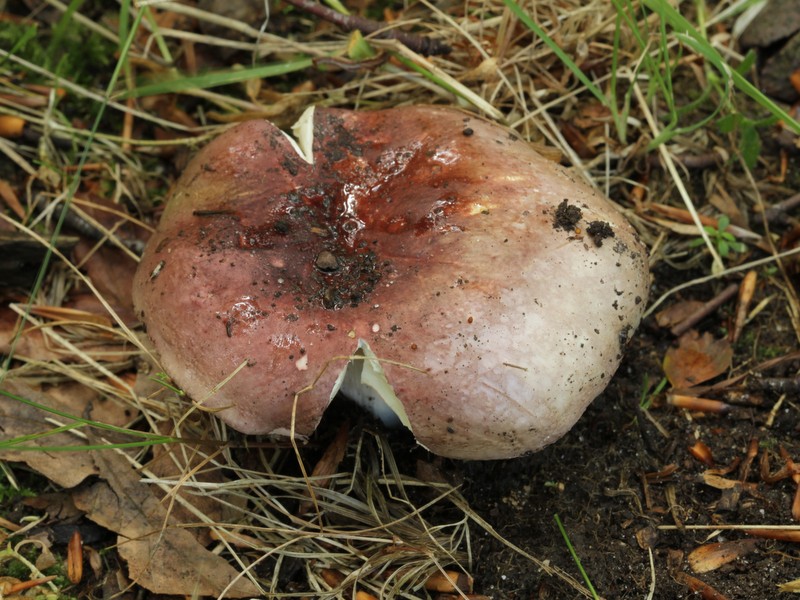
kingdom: Fungi
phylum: Basidiomycota
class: Agaricomycetes
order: Russulales
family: Russulaceae
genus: Russula
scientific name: Russula olivacea
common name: stor skørhat
